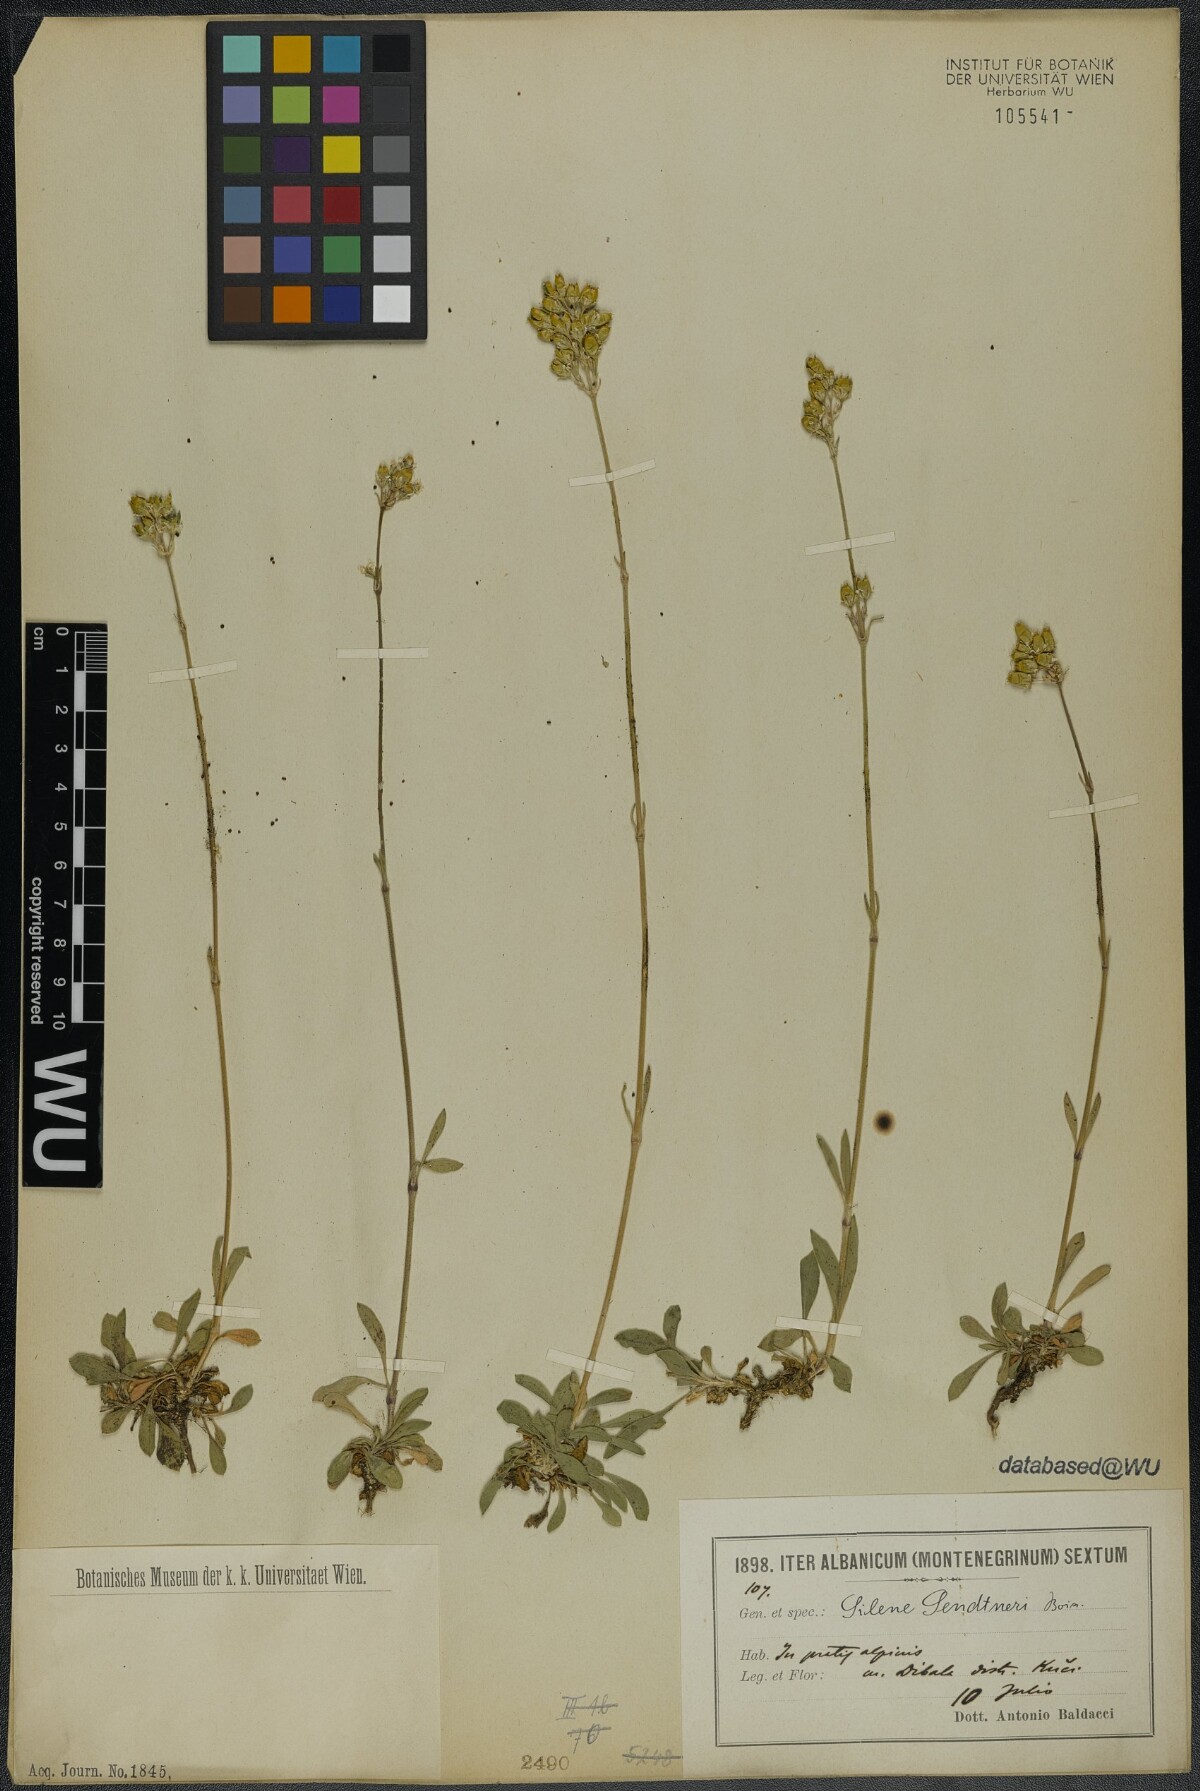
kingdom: Plantae
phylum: Tracheophyta
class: Magnoliopsida
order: Caryophyllales
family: Caryophyllaceae
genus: Silene
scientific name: Silene sendtneri
